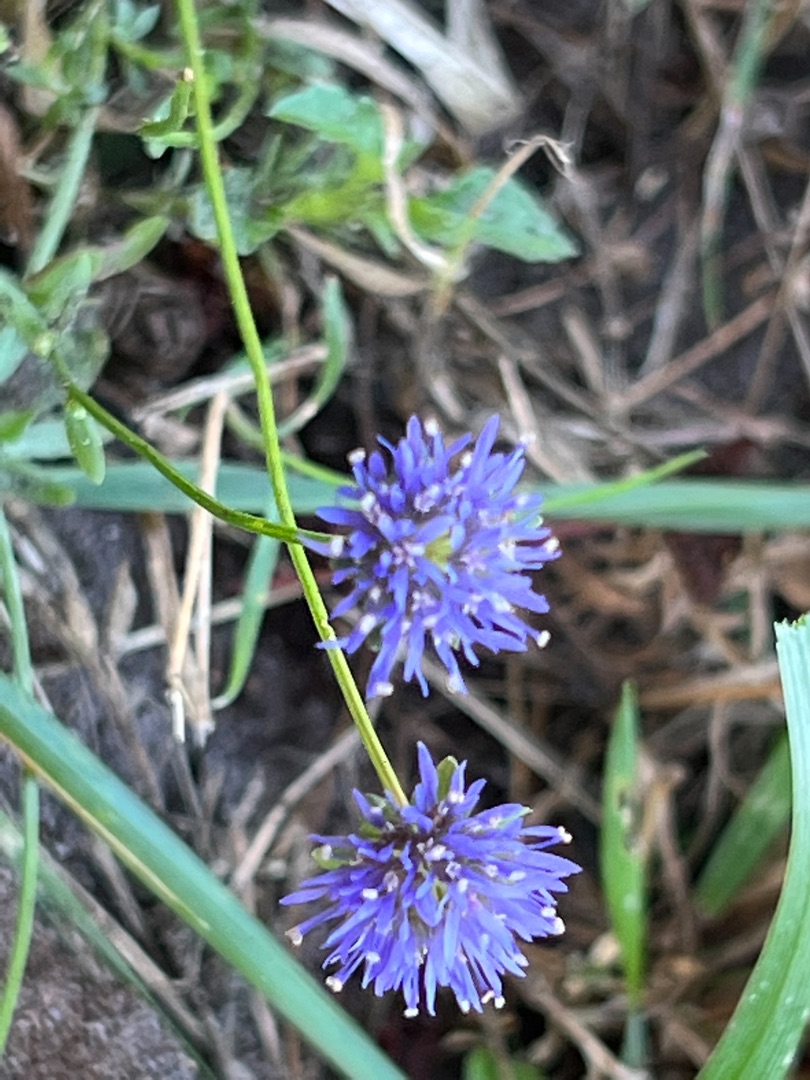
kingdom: Plantae
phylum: Tracheophyta
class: Magnoliopsida
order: Asterales
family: Campanulaceae
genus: Jasione
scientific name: Jasione montana
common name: Blåmunke
